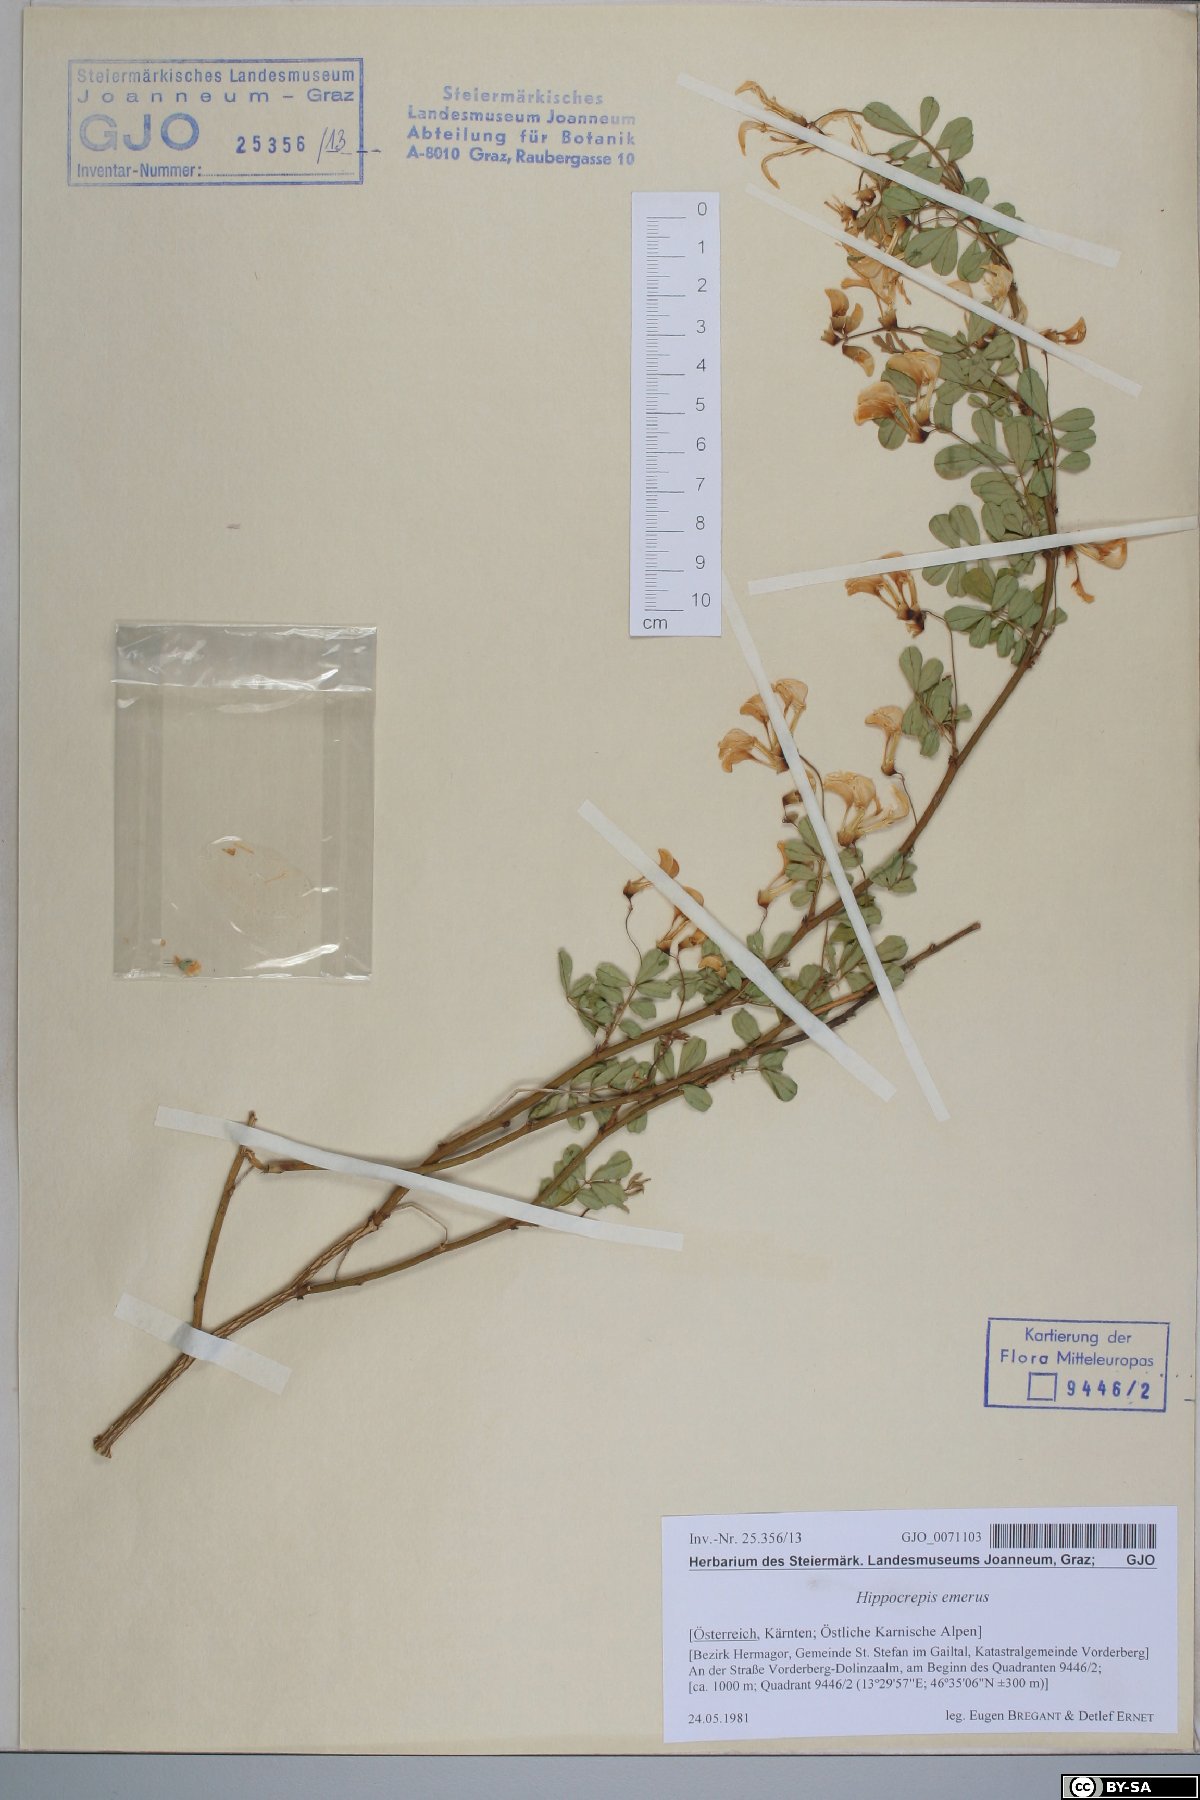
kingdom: Plantae
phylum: Tracheophyta
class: Magnoliopsida
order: Fabales
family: Fabaceae
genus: Hippocrepis
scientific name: Hippocrepis emerus
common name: Scorpion senna
